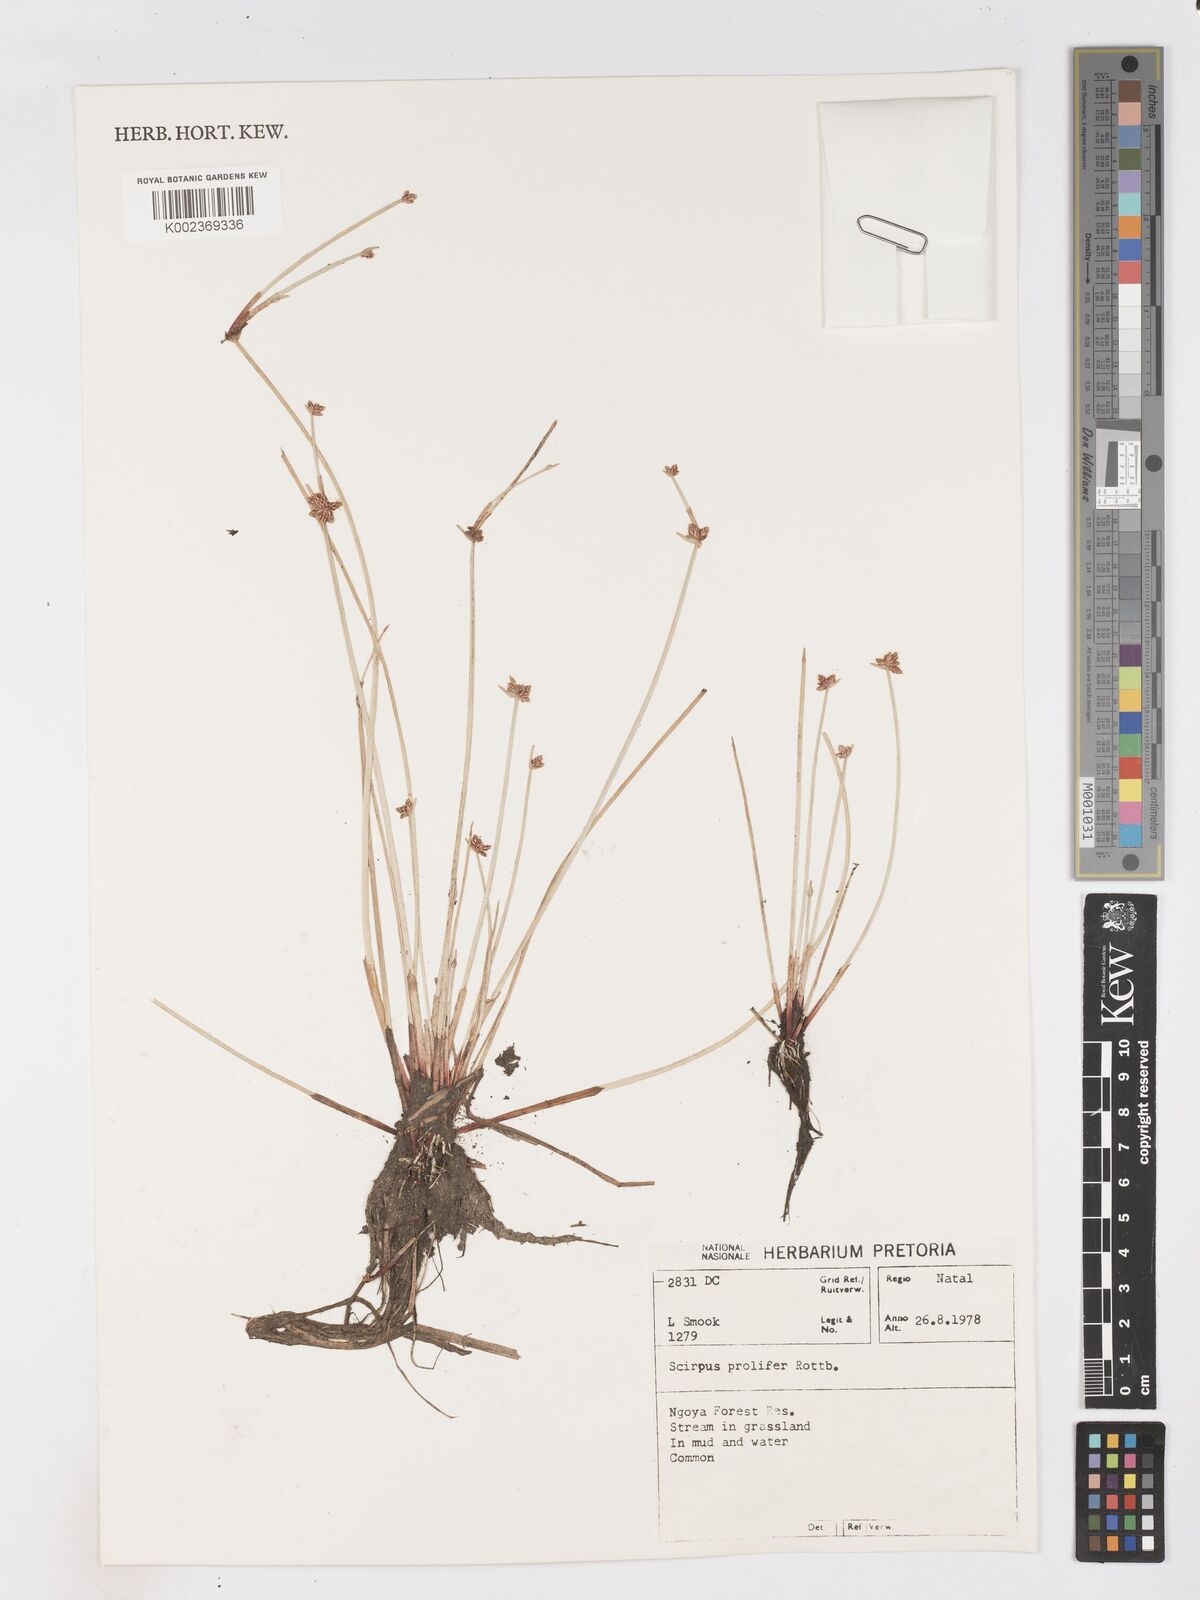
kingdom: Plantae
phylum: Tracheophyta
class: Liliopsida
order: Poales
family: Cyperaceae
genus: Isolepis
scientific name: Isolepis prolifera
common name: Proliferating bulrush
